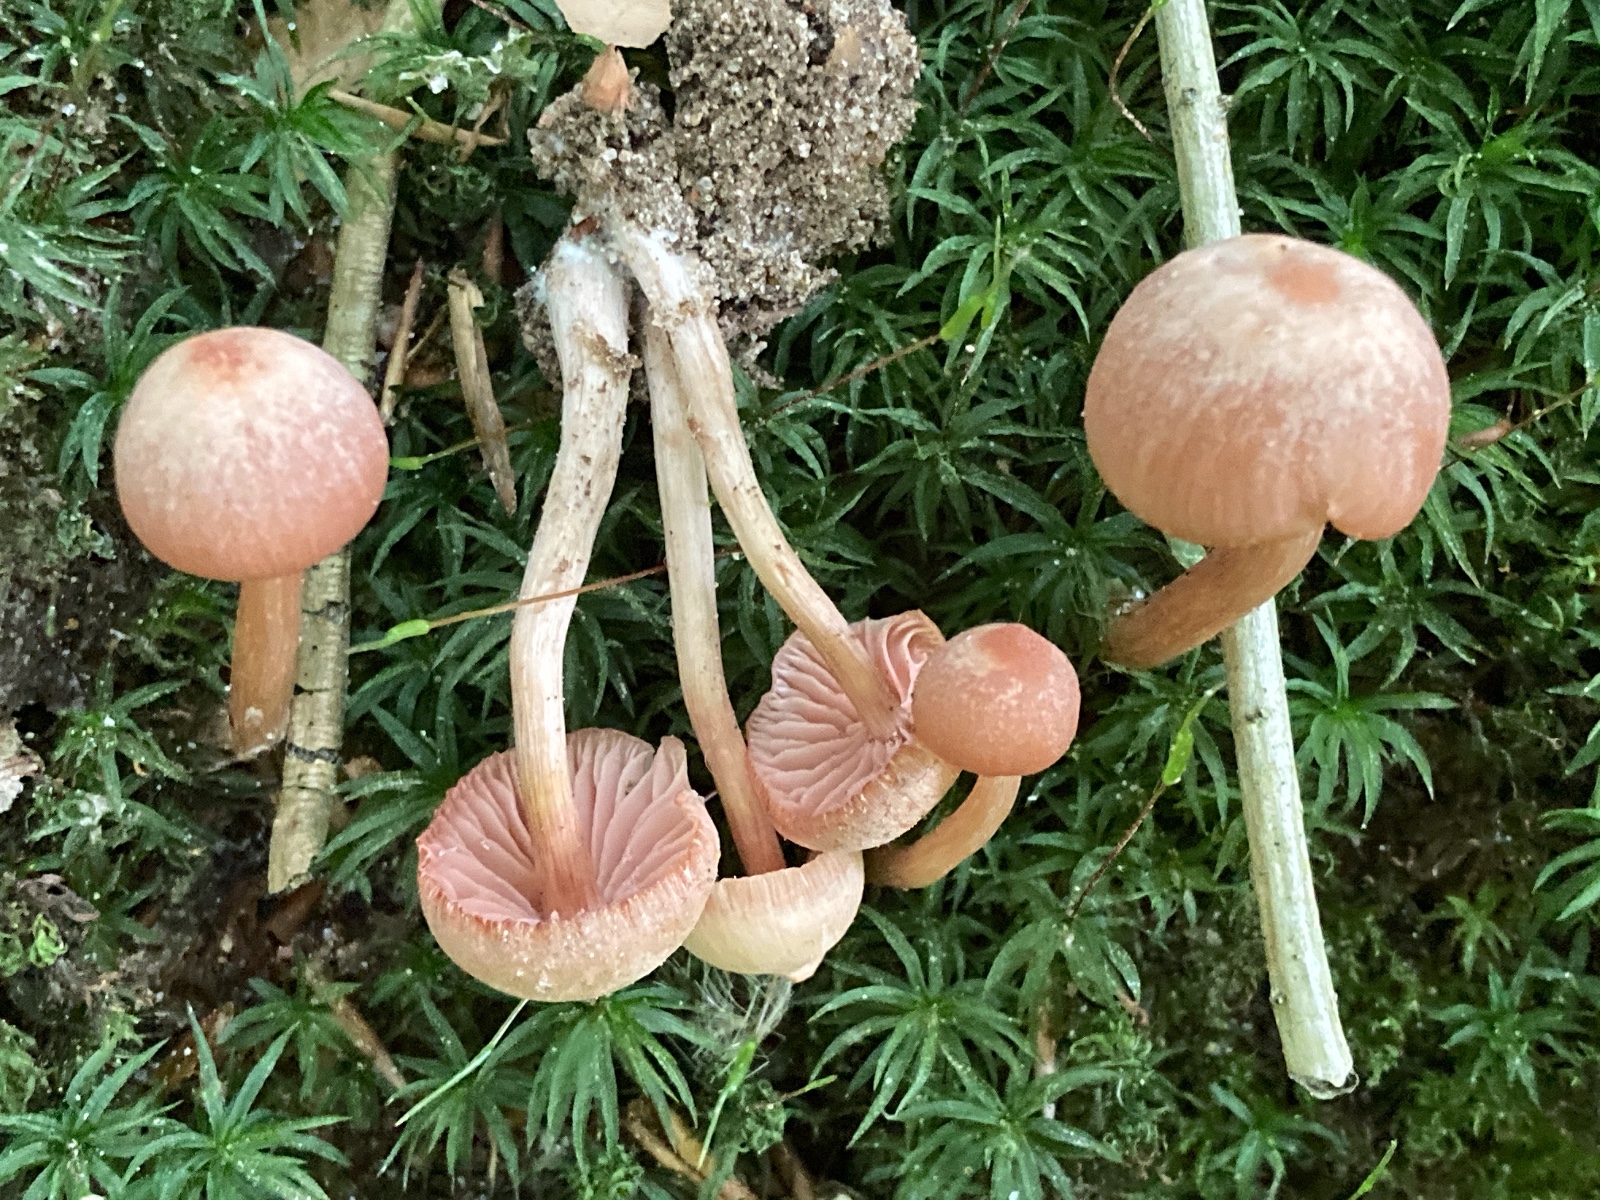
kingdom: Fungi
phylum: Basidiomycota
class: Agaricomycetes
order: Agaricales
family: Hydnangiaceae
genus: Laccaria
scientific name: Laccaria laccata
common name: rød ametysthat
